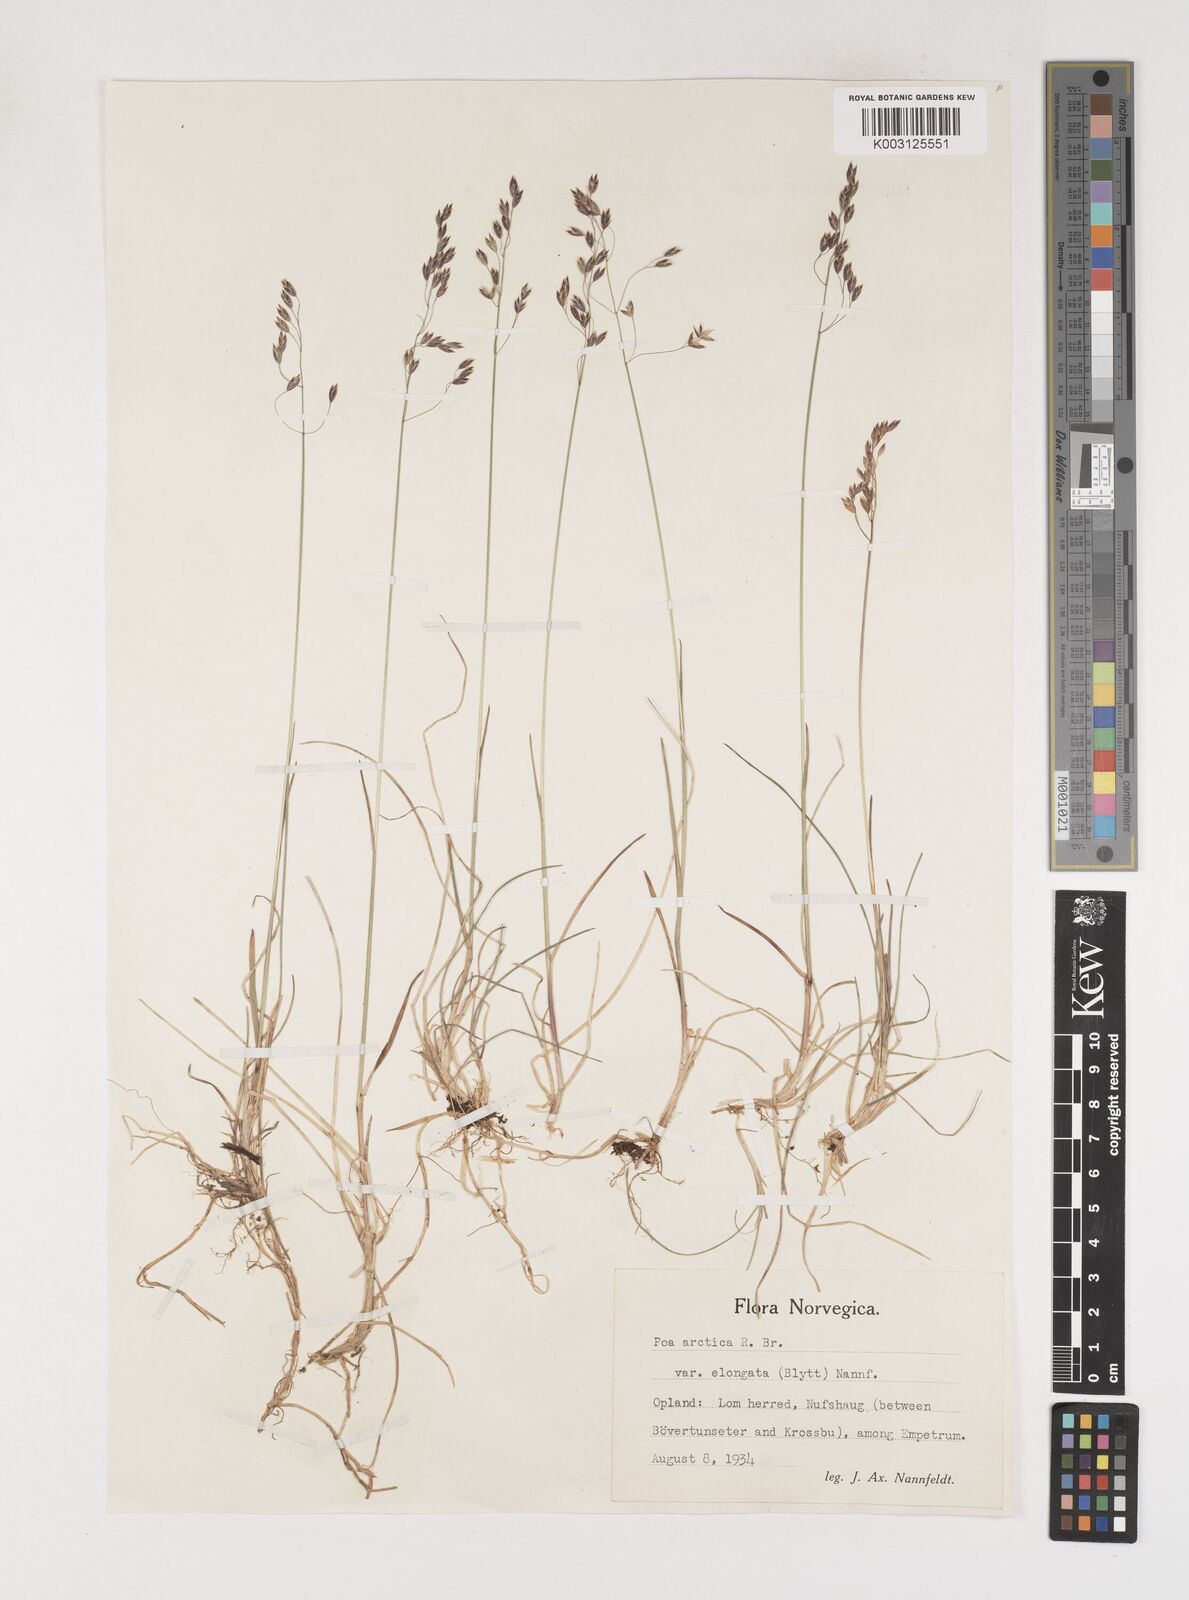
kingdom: Plantae
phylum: Tracheophyta
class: Liliopsida
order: Poales
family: Poaceae
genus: Poa
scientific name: Poa arctica
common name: Arctic bluegrass
